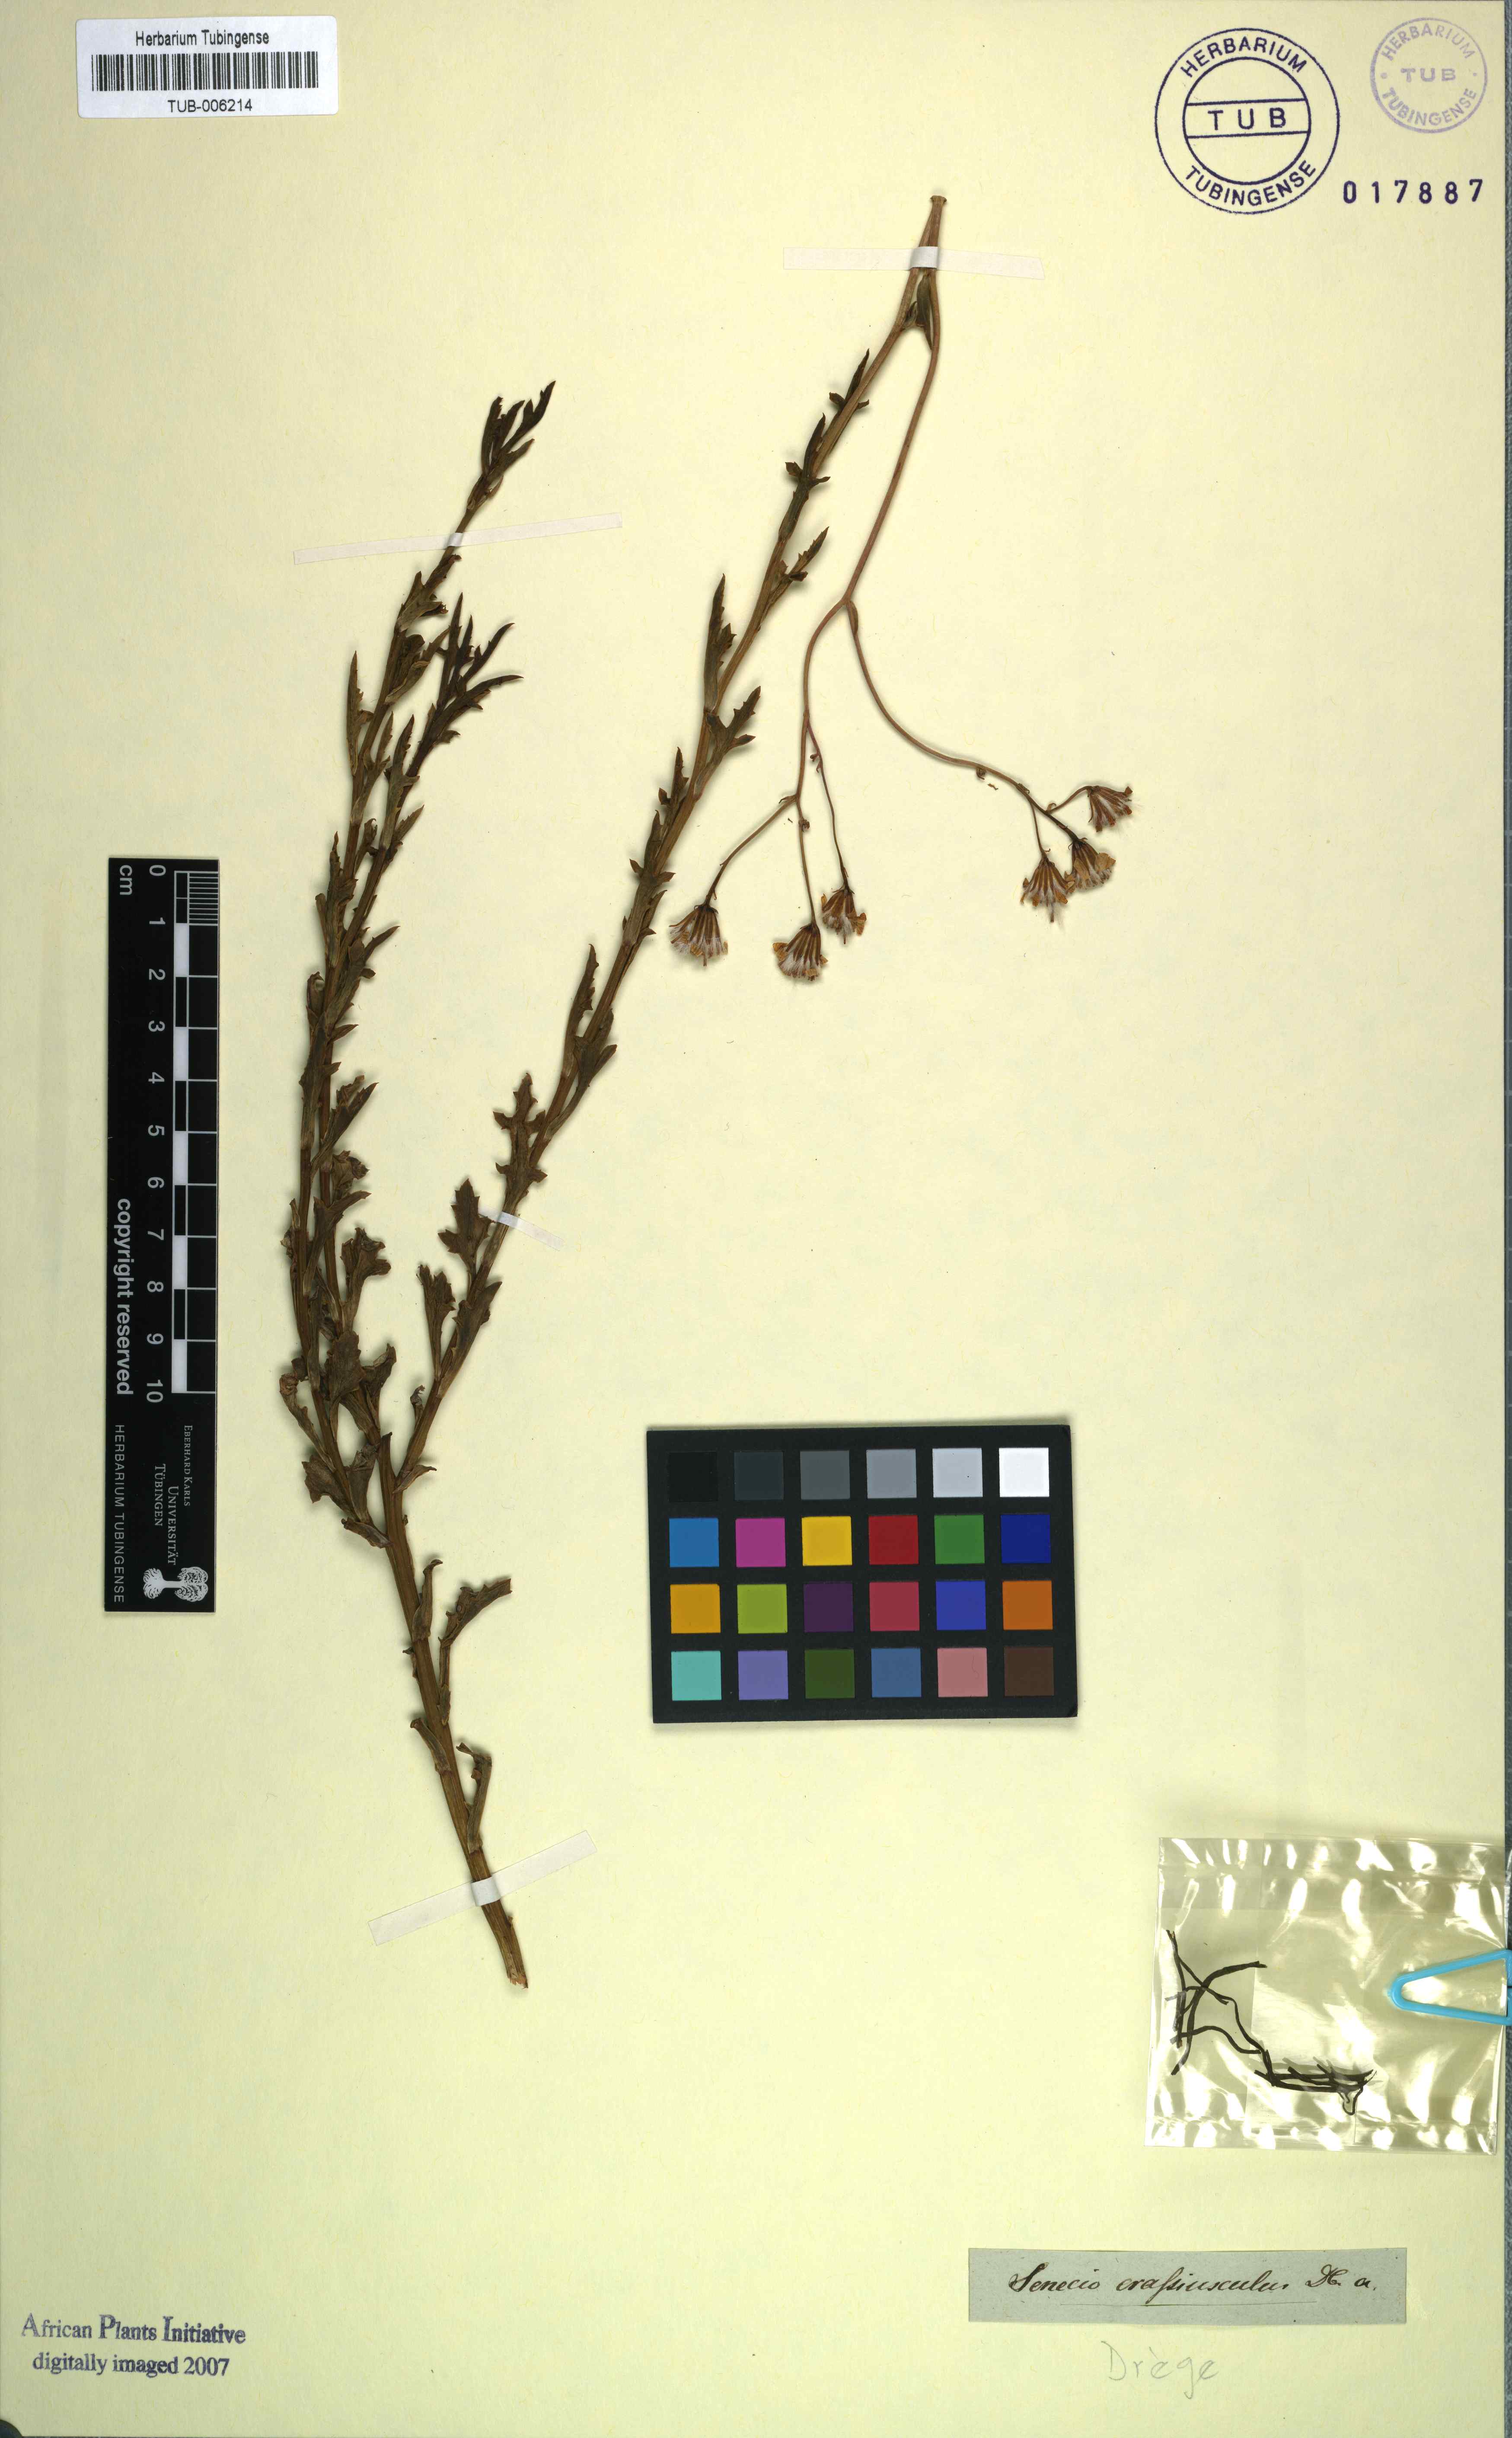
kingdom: Plantae
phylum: Tracheophyta
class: Magnoliopsida
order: Asterales
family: Asteraceae
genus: Senecio
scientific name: Senecio crassiusculus
